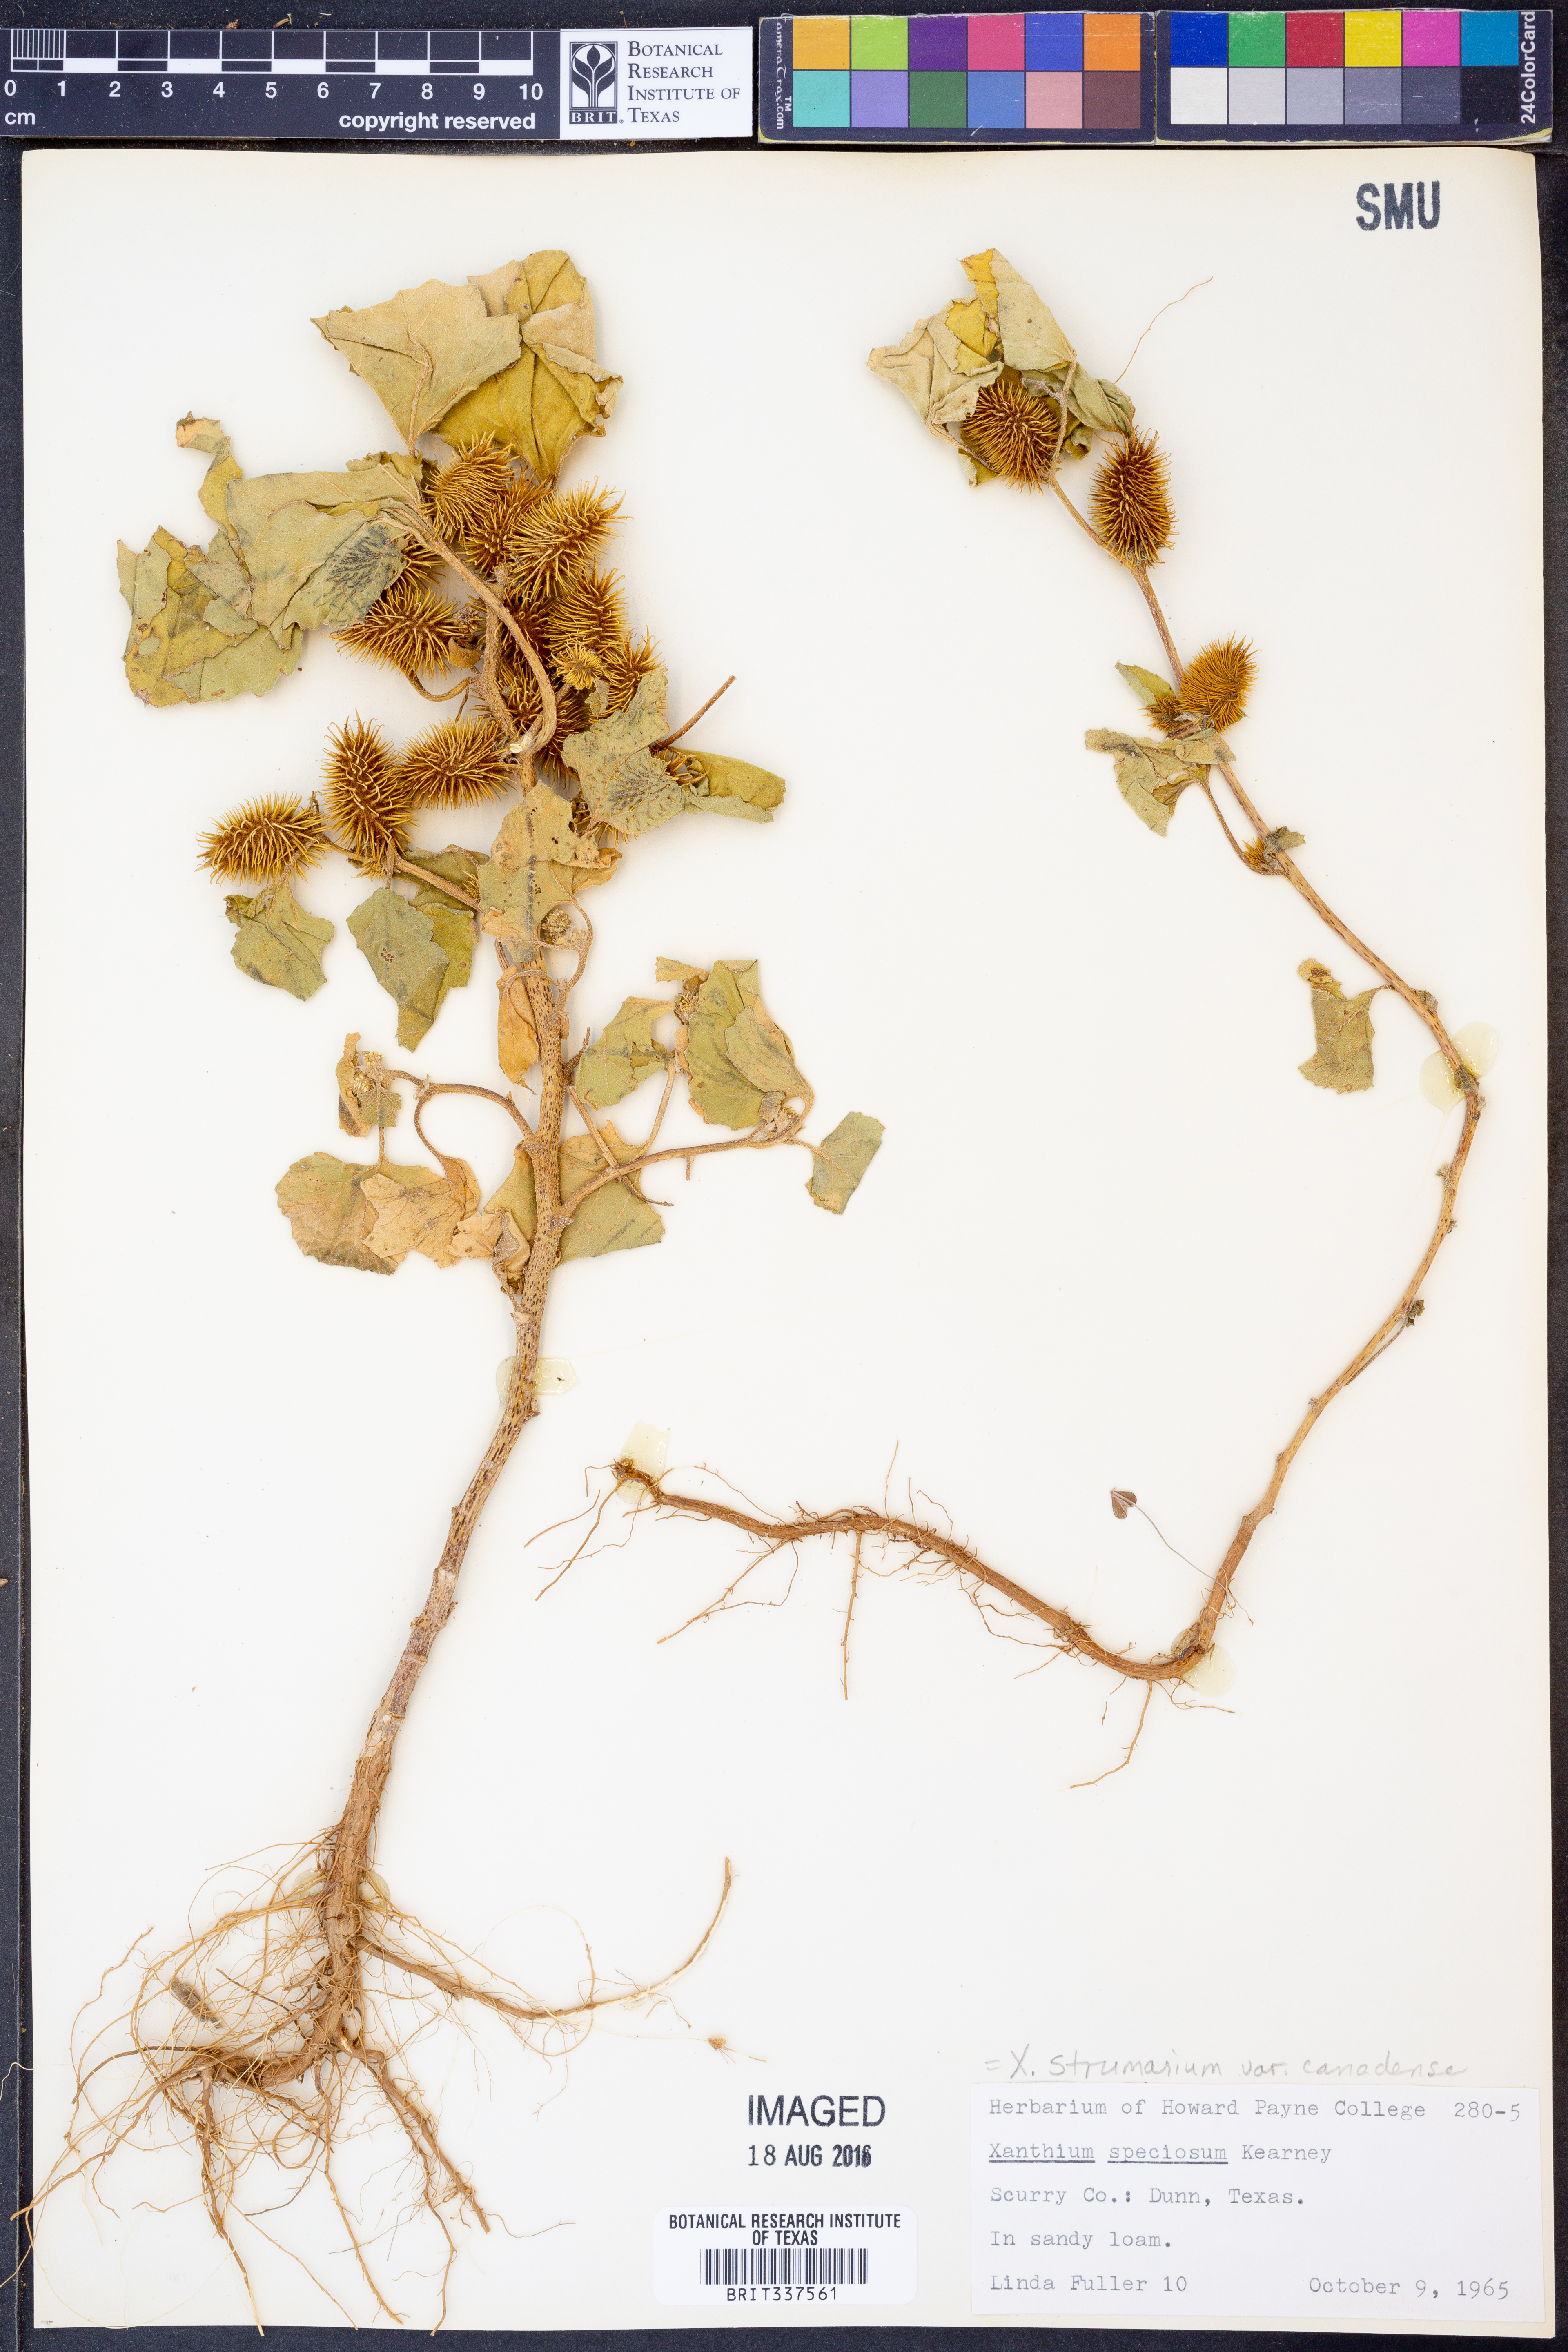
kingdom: Plantae
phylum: Tracheophyta
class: Magnoliopsida
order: Asterales
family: Asteraceae
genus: Xanthium
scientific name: Xanthium orientale
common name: Californian burr
